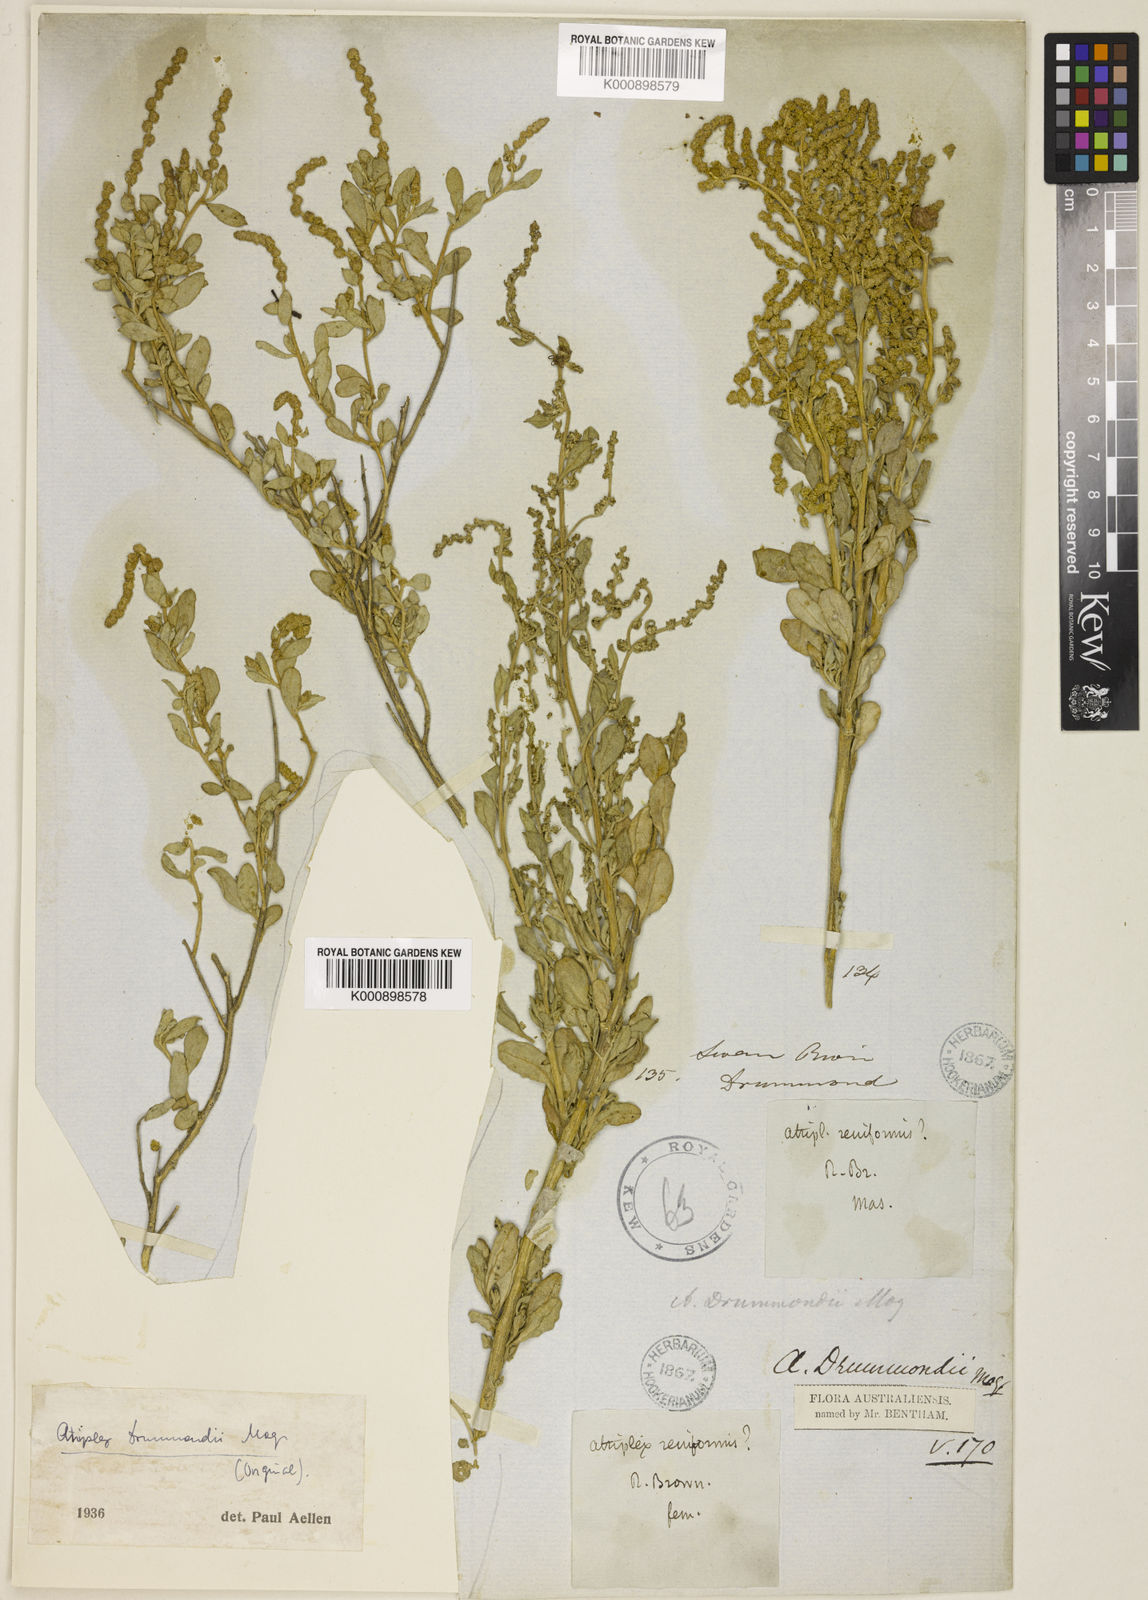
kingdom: Plantae
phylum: Tracheophyta
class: Magnoliopsida
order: Caryophyllales
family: Amaranthaceae
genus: Atriplex
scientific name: Atriplex paludosa
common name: Marsh saltbush
